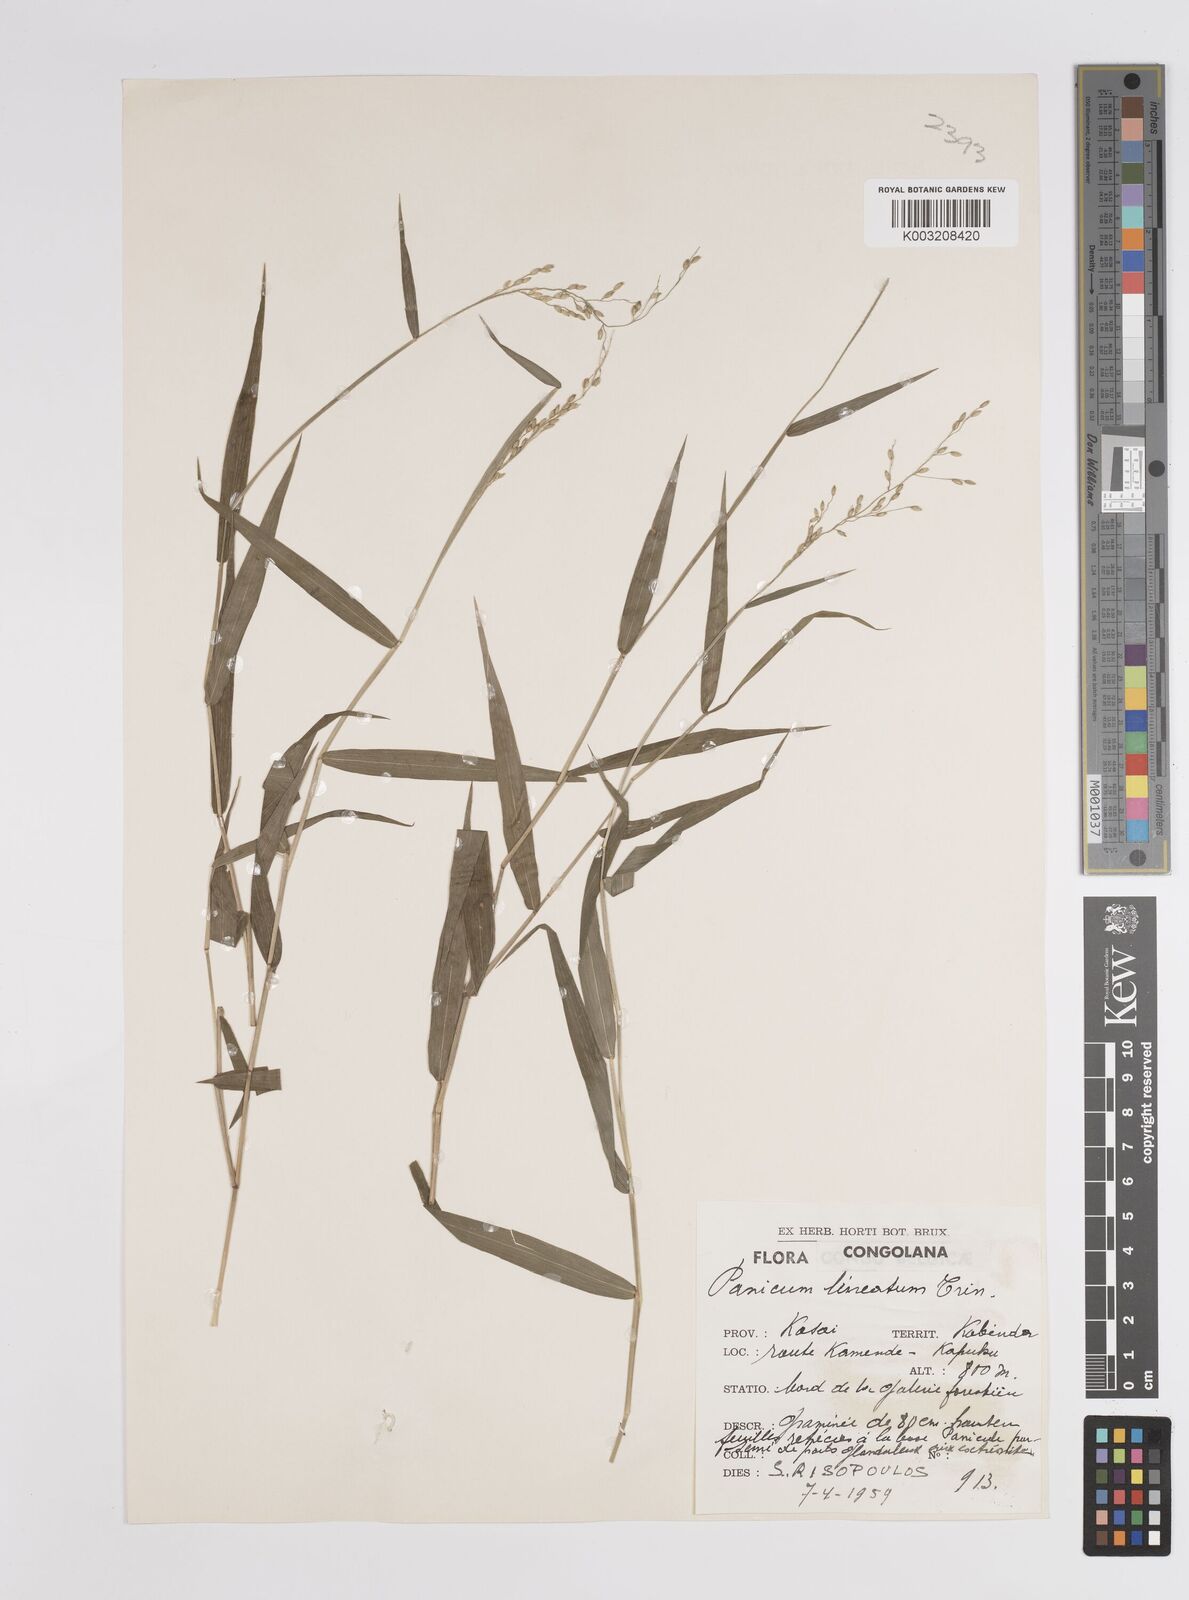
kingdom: Plantae
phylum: Tracheophyta
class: Liliopsida
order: Poales
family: Poaceae
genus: Adenochloa
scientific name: Adenochloa sadinii
